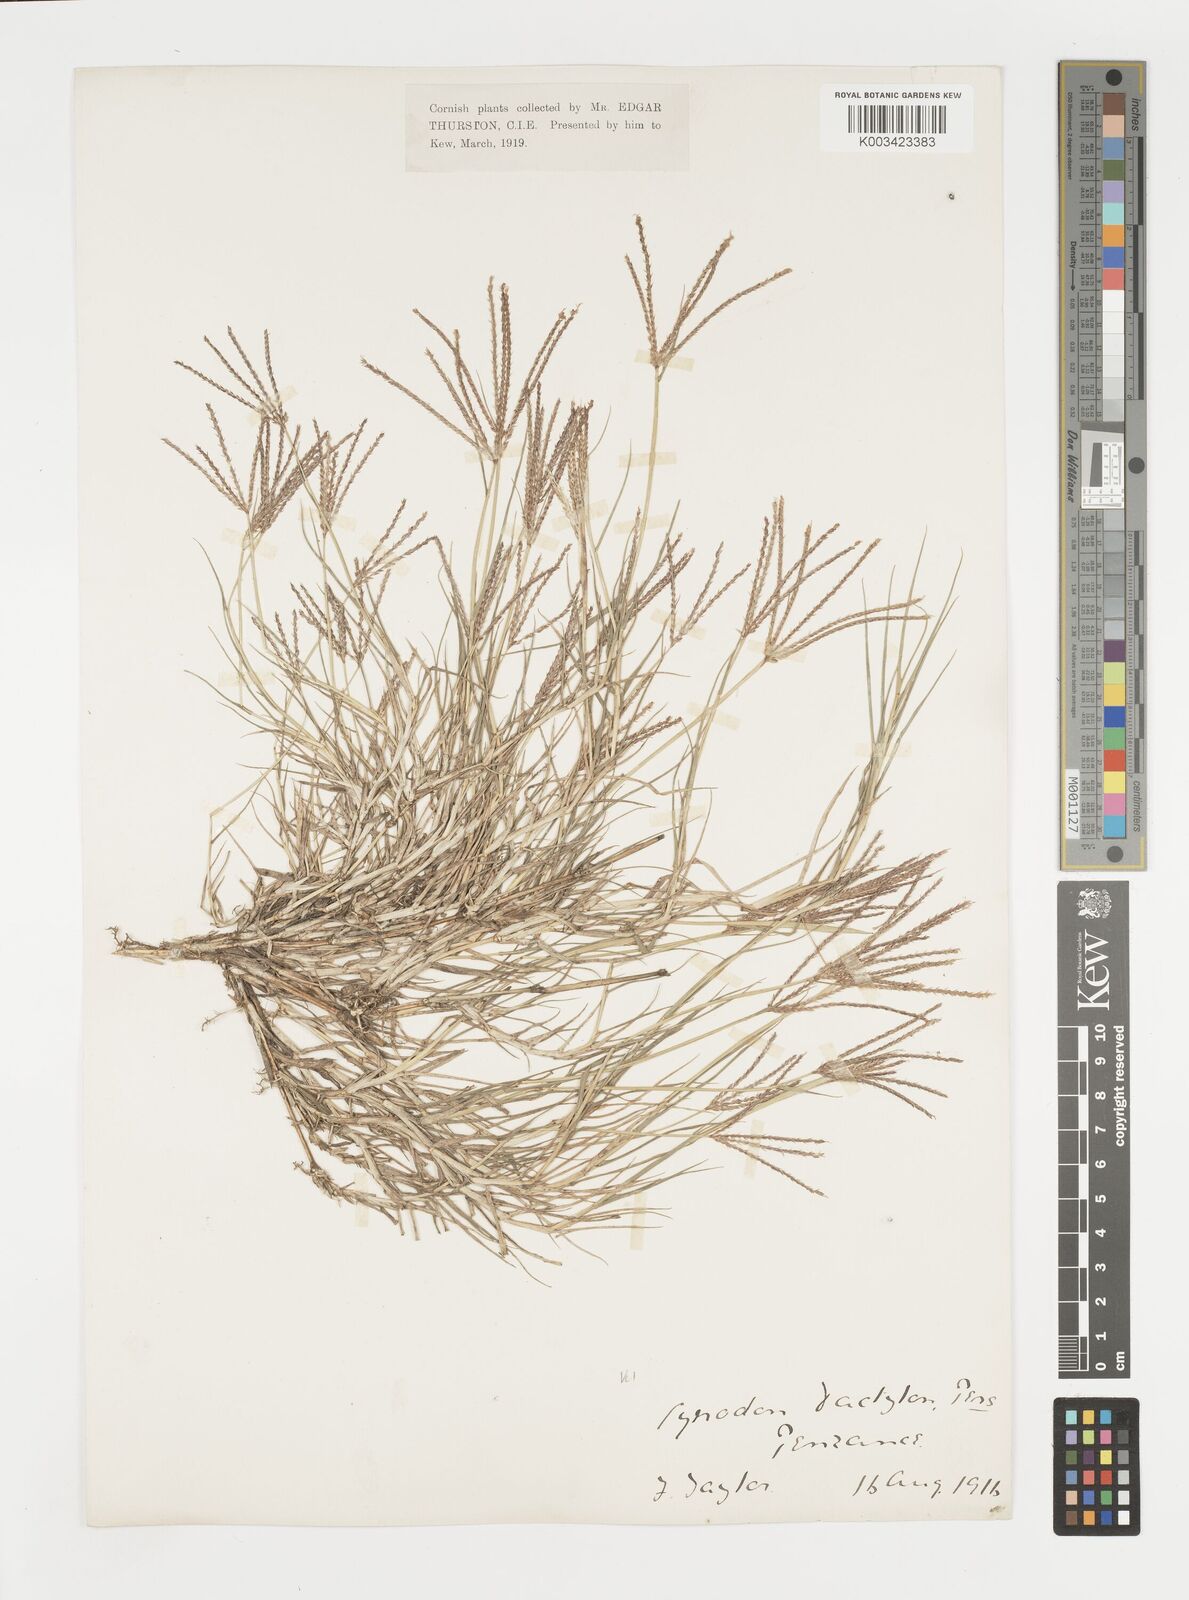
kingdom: Plantae
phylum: Tracheophyta
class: Liliopsida
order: Poales
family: Poaceae
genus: Cynodon
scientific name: Cynodon dactylon
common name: Bermuda grass
